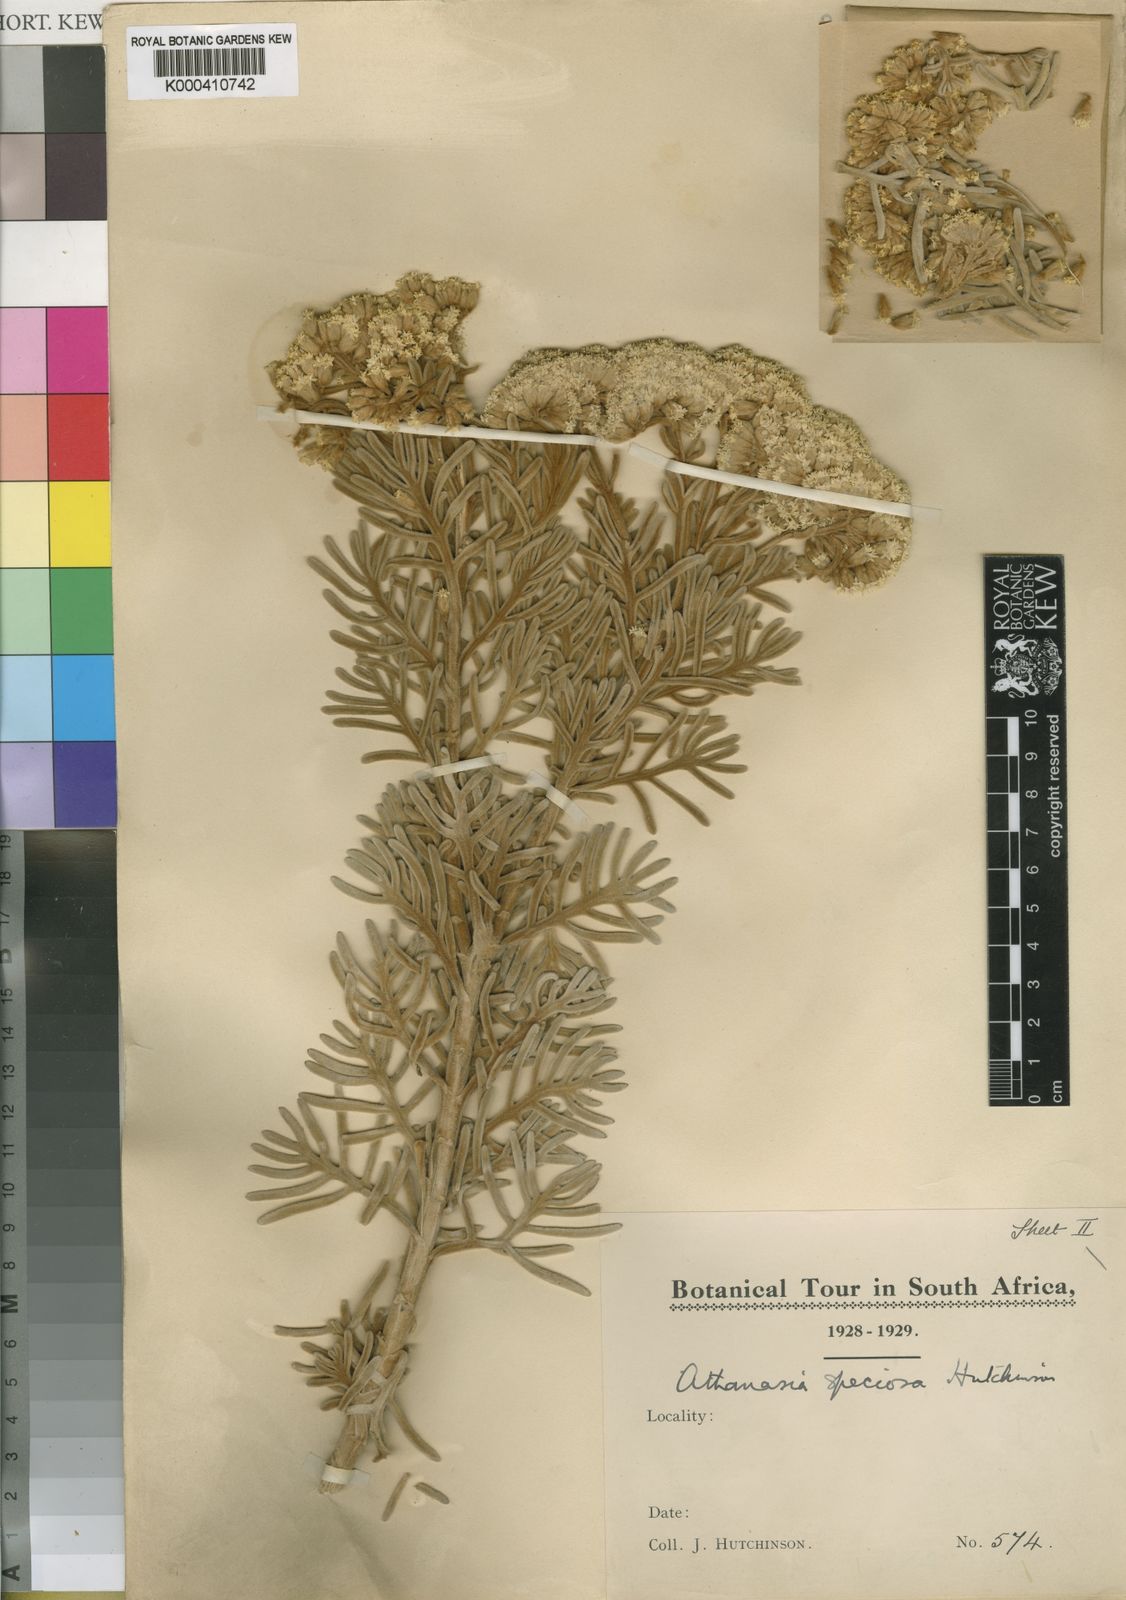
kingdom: Plantae
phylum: Tracheophyta
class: Magnoliopsida
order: Asterales
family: Asteraceae
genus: Hymenolepis
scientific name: Hymenolepis
